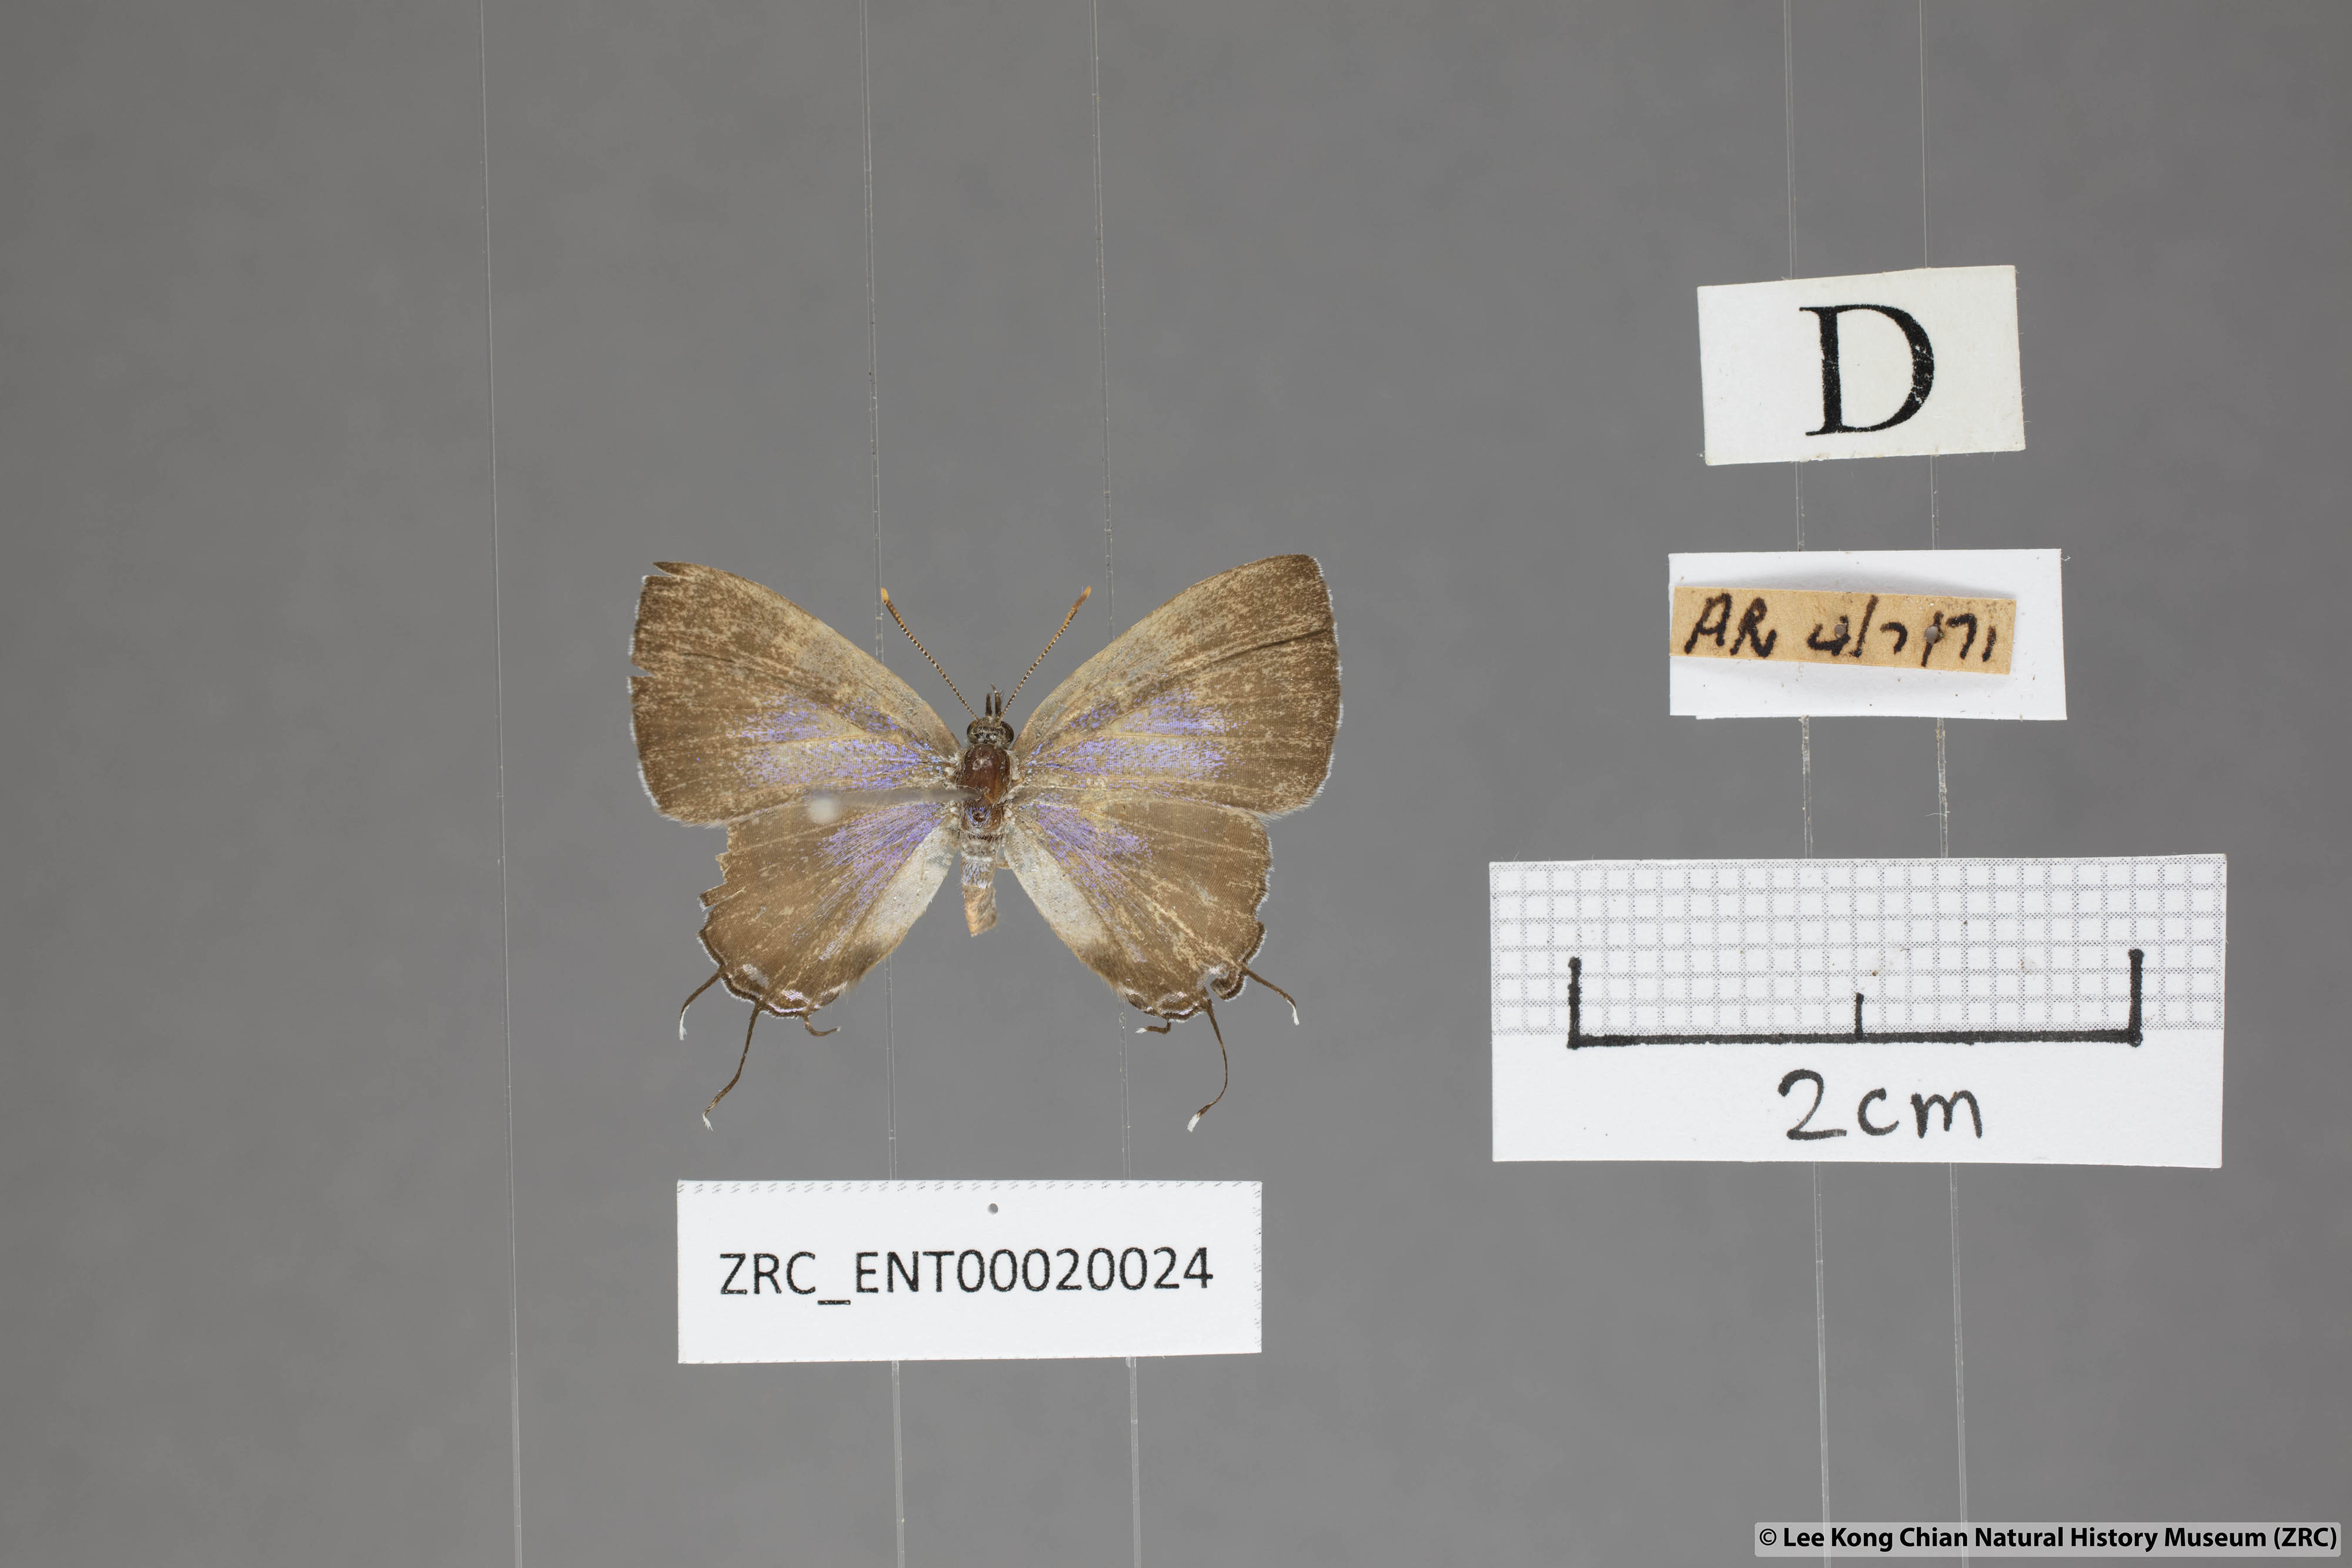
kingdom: Animalia
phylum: Arthropoda
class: Insecta
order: Lepidoptera
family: Lycaenidae
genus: Catapaecilma
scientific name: Catapaecilma subochrea
